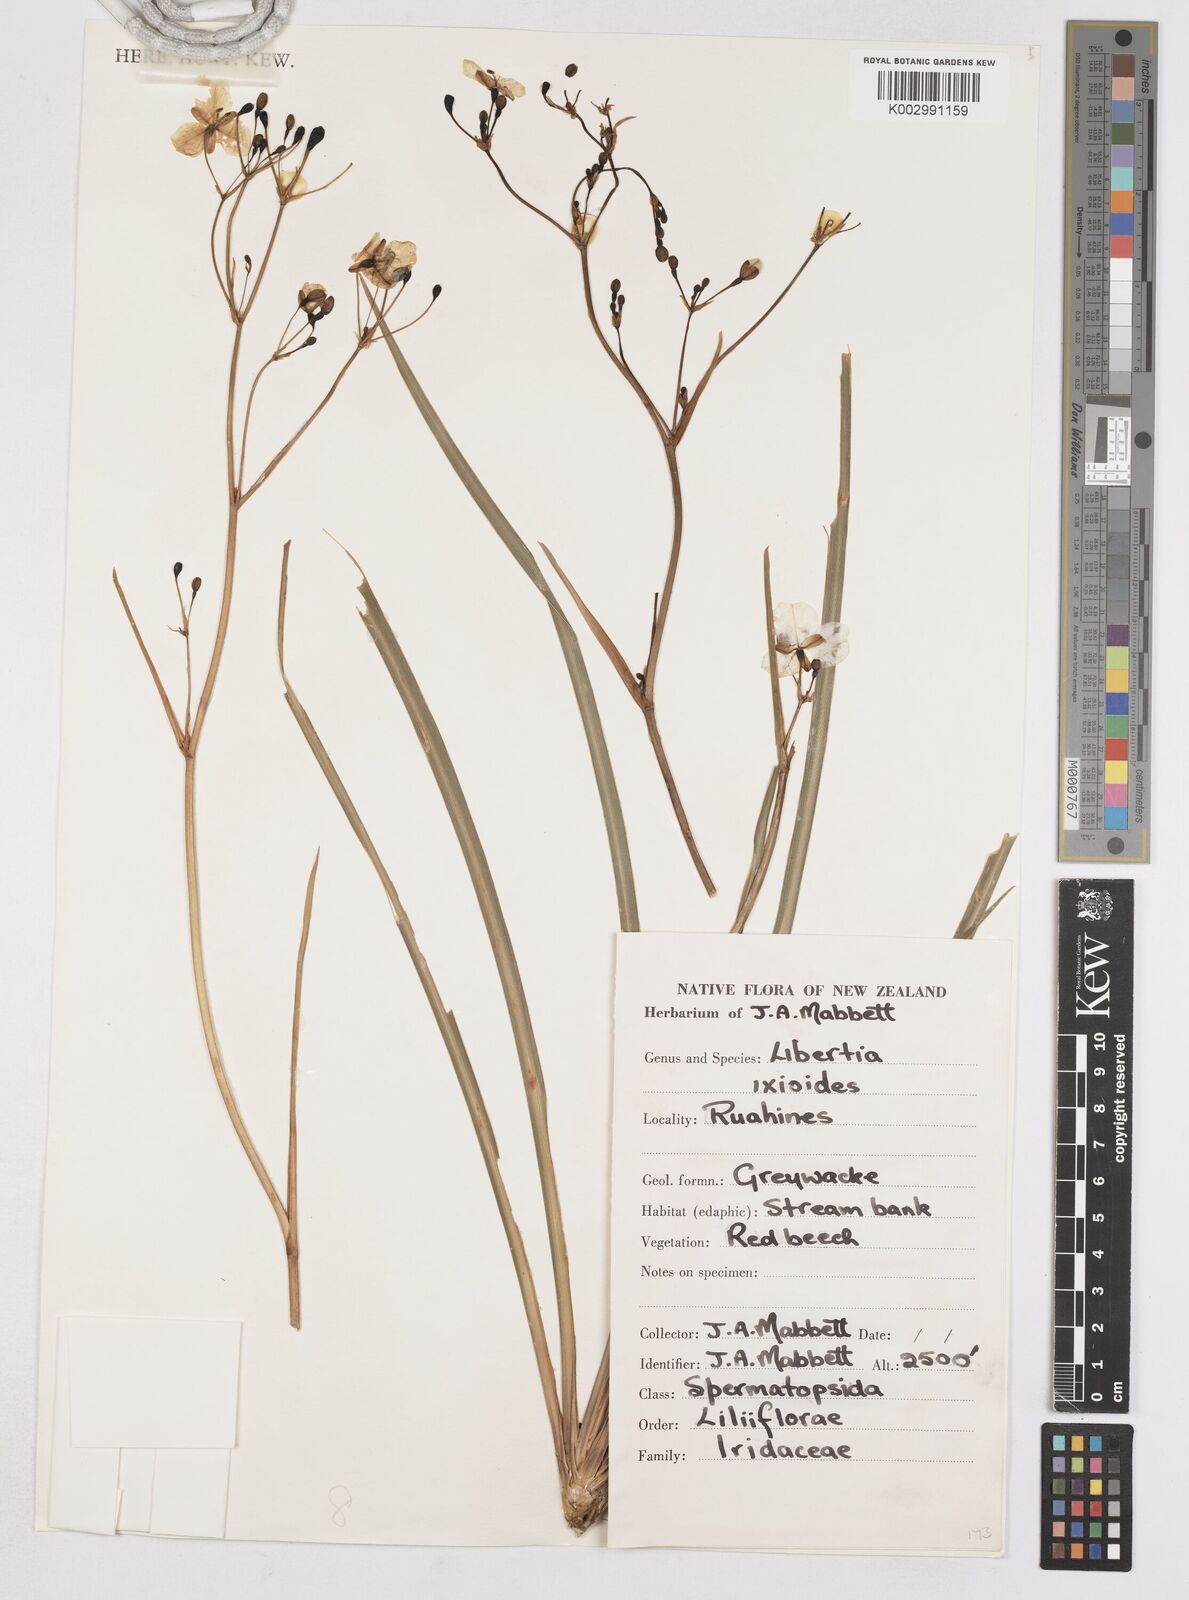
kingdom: Plantae
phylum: Tracheophyta
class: Liliopsida
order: Asparagales
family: Iridaceae
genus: Libertia
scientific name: Libertia ixioides
